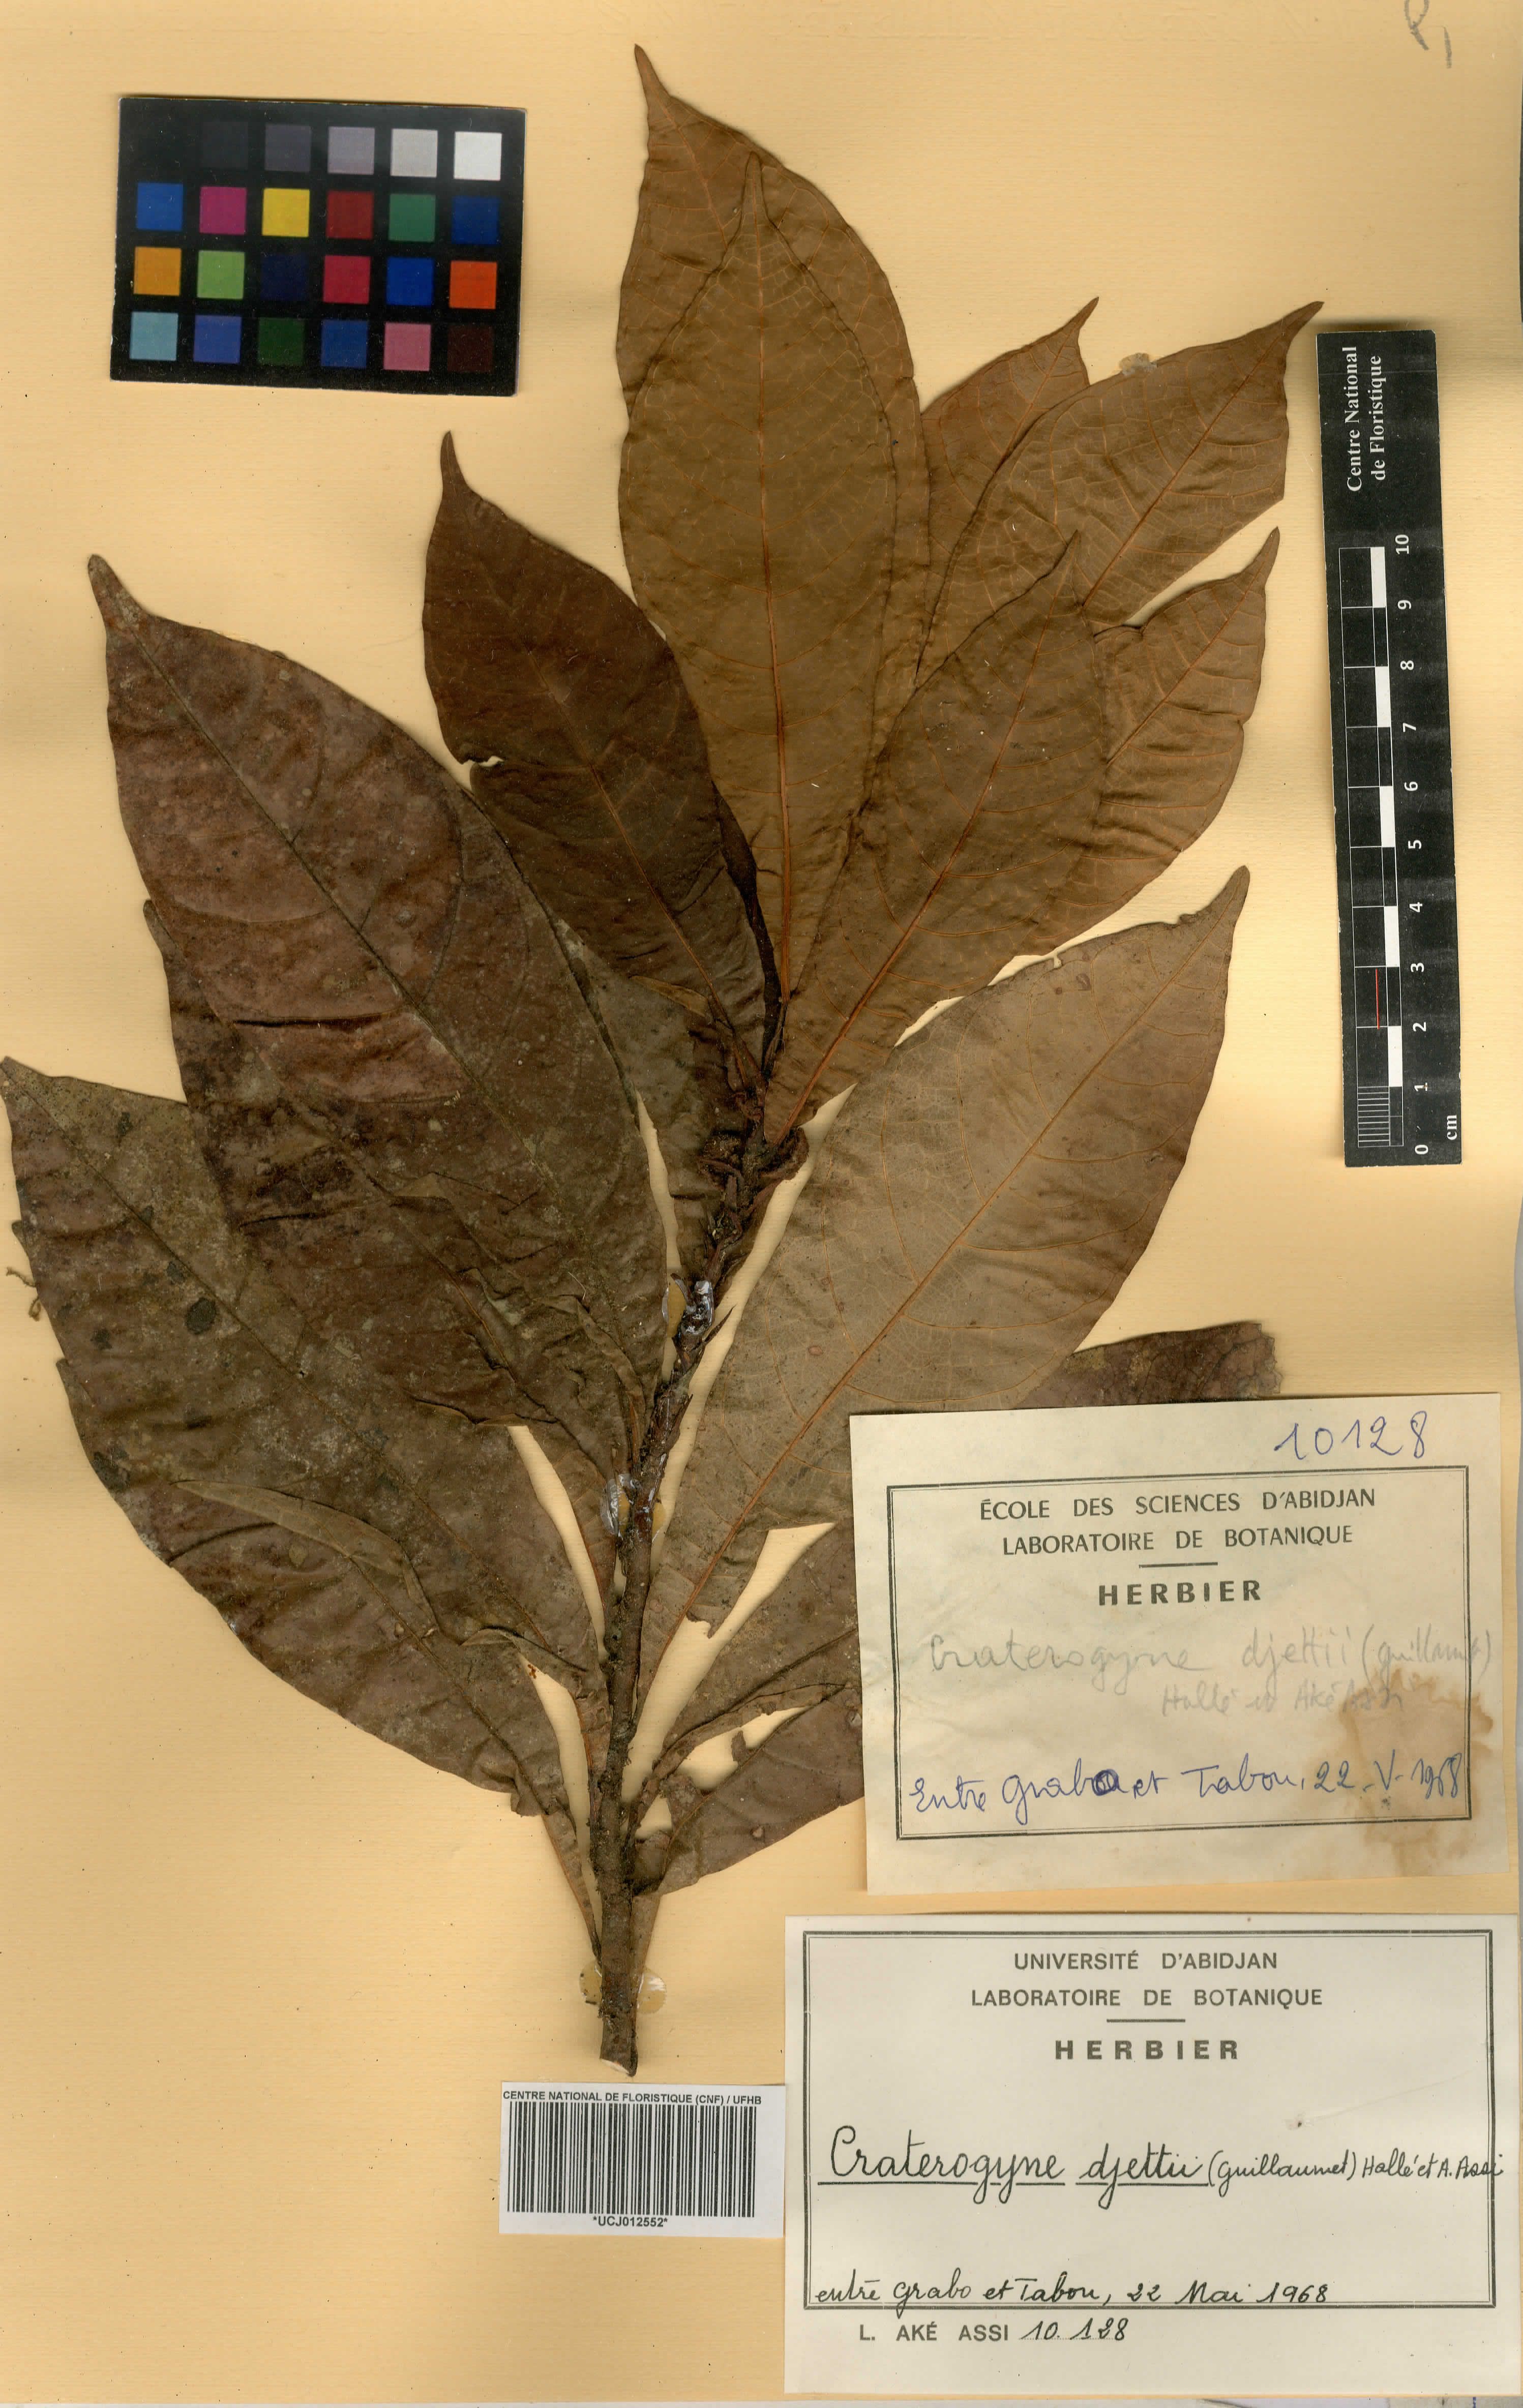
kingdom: Plantae
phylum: Tracheophyta
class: Magnoliopsida
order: Rosales
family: Moraceae
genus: Dorstenia
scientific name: Dorstenia djettii
